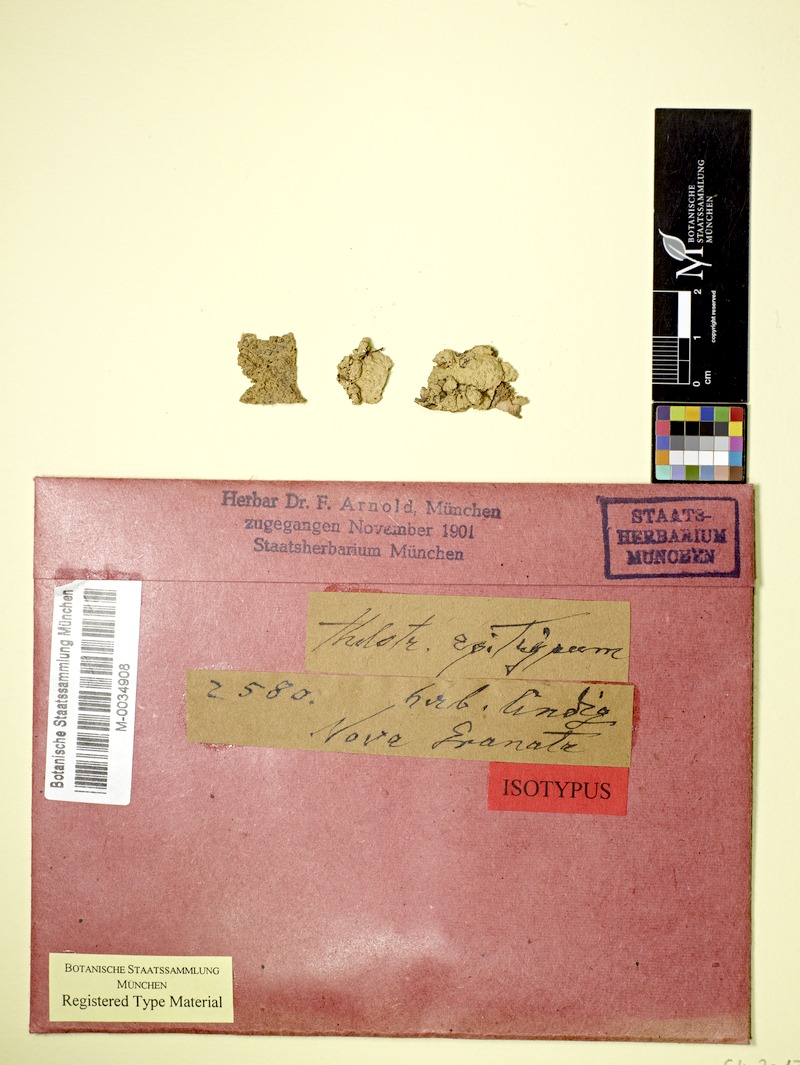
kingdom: Fungi
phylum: Ascomycota
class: Lecanoromycetes
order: Ostropales
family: Graphidaceae
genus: Ocellularia
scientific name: Ocellularia bahiana
